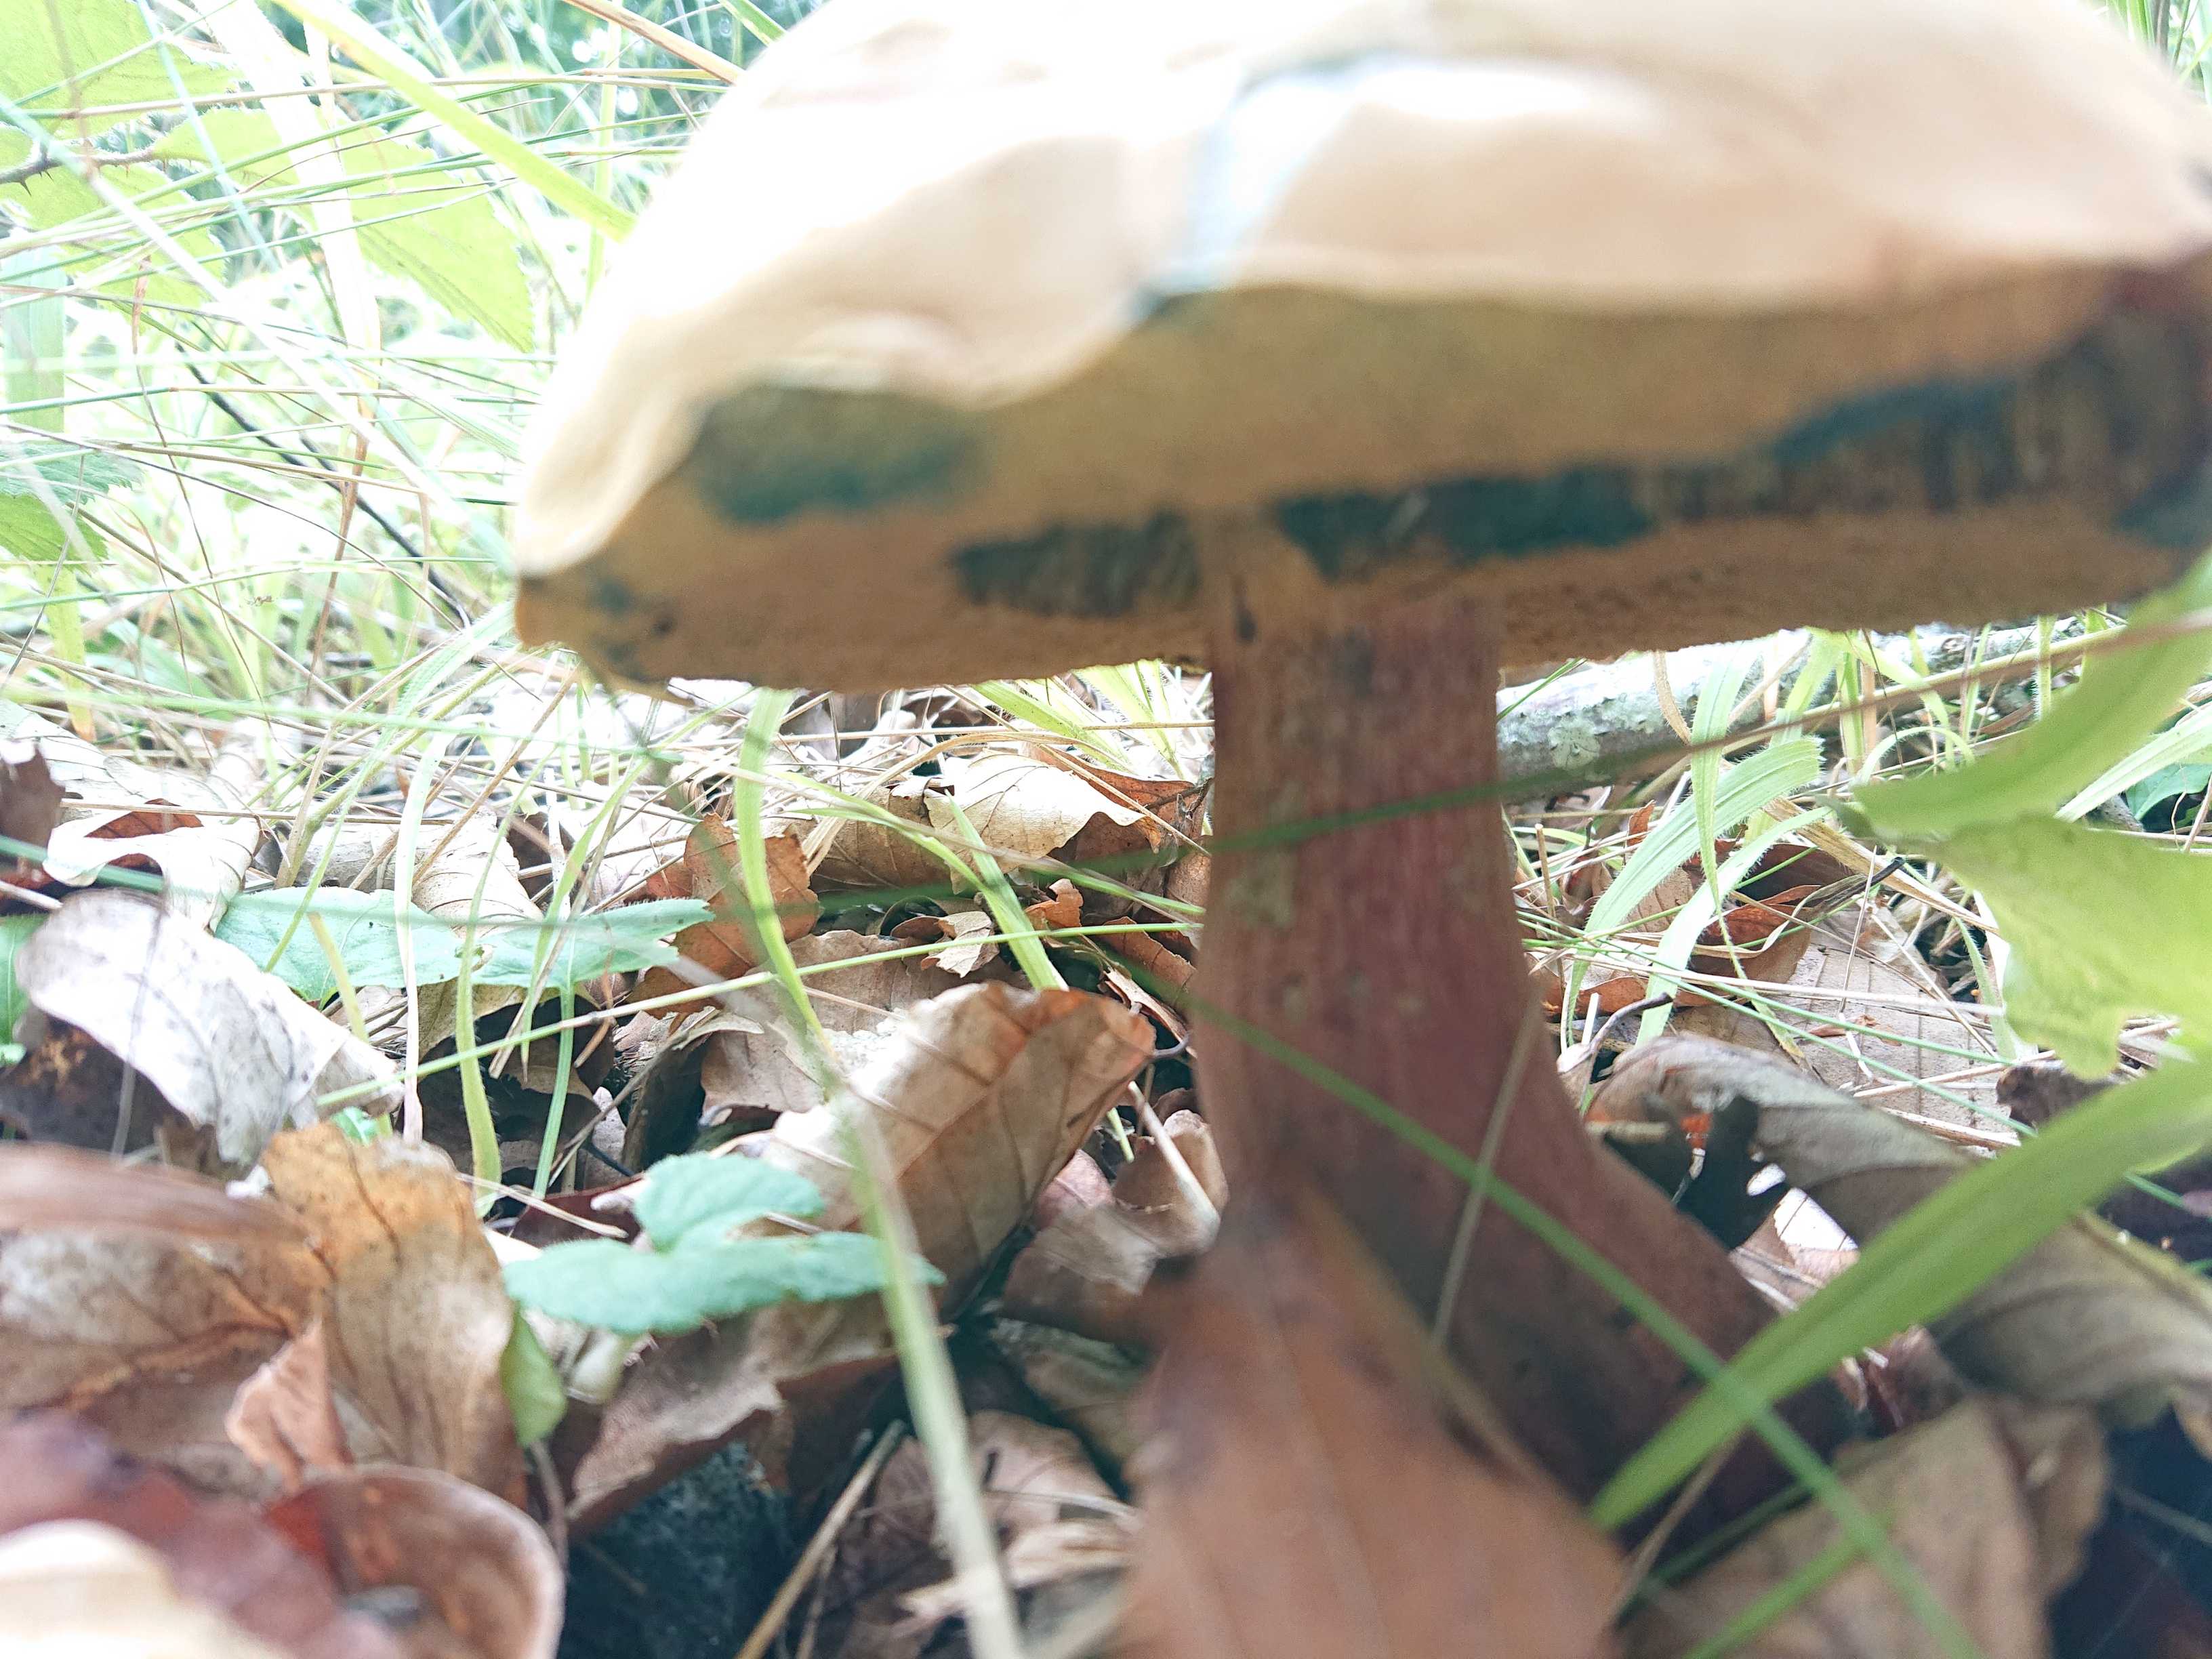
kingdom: Fungi
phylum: Basidiomycota
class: Agaricomycetes
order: Boletales
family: Boletaceae
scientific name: Boletaceae
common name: rørhatfamilien
